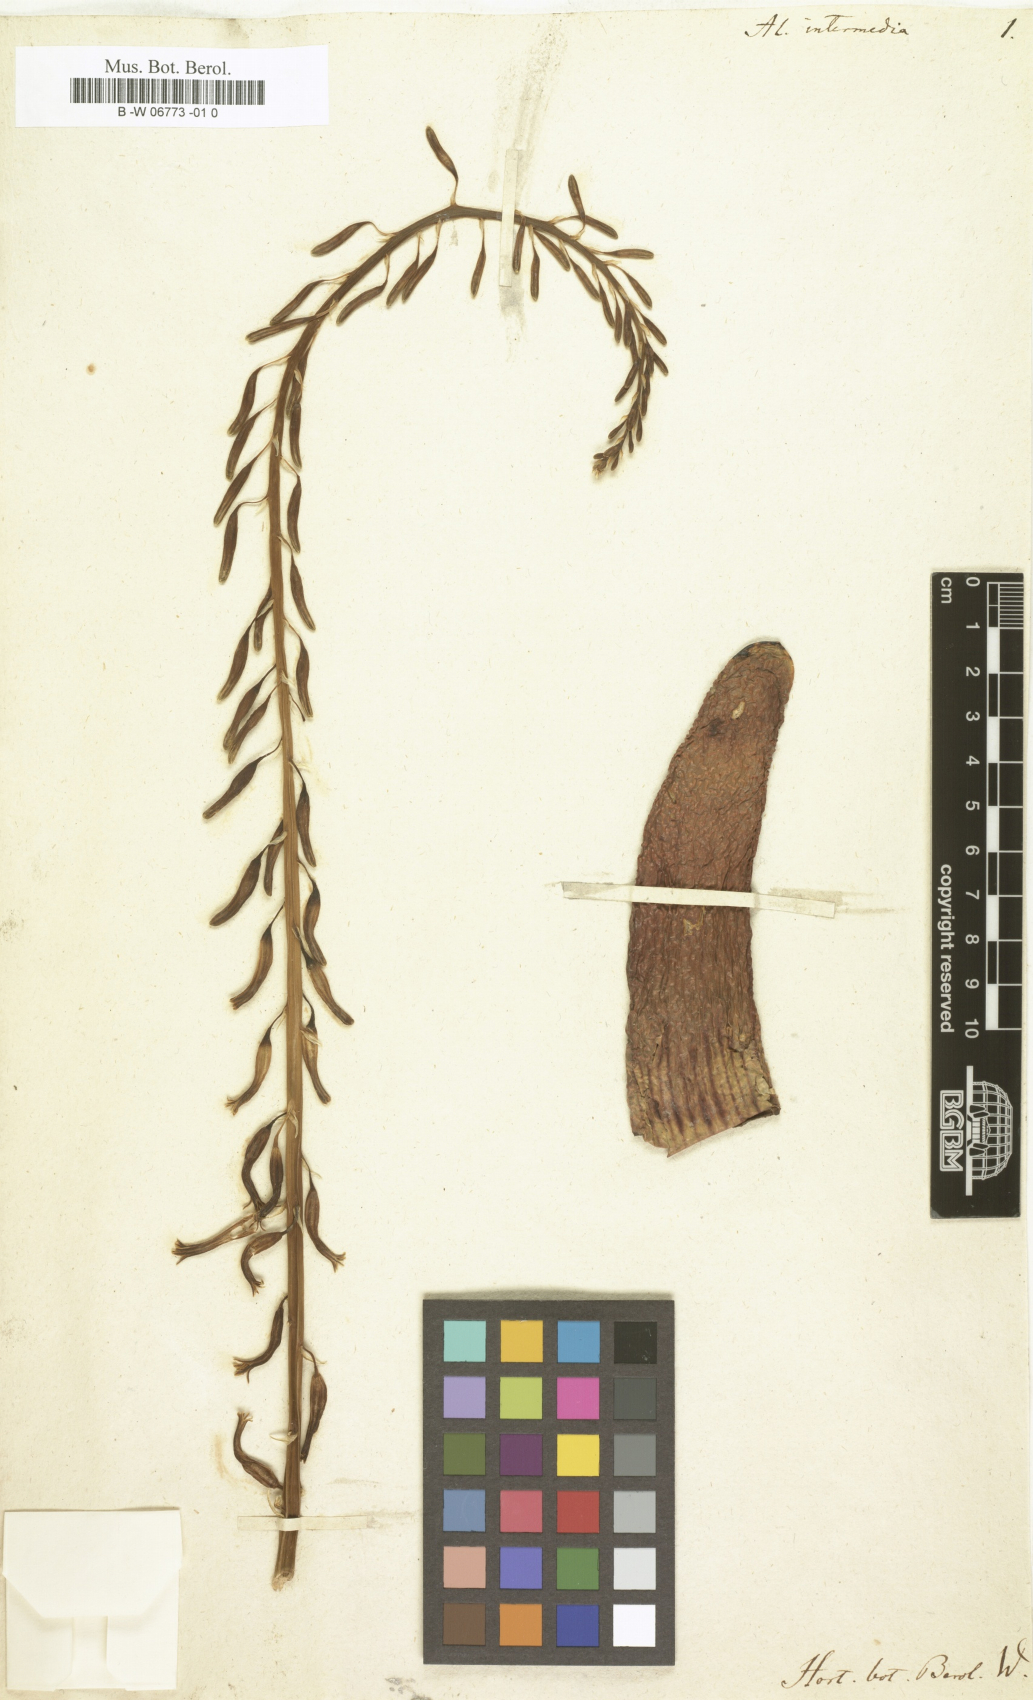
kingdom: Plantae
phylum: Tracheophyta
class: Liliopsida
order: Asparagales
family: Asphodelaceae
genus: Gasteria
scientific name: Gasteria carinata
